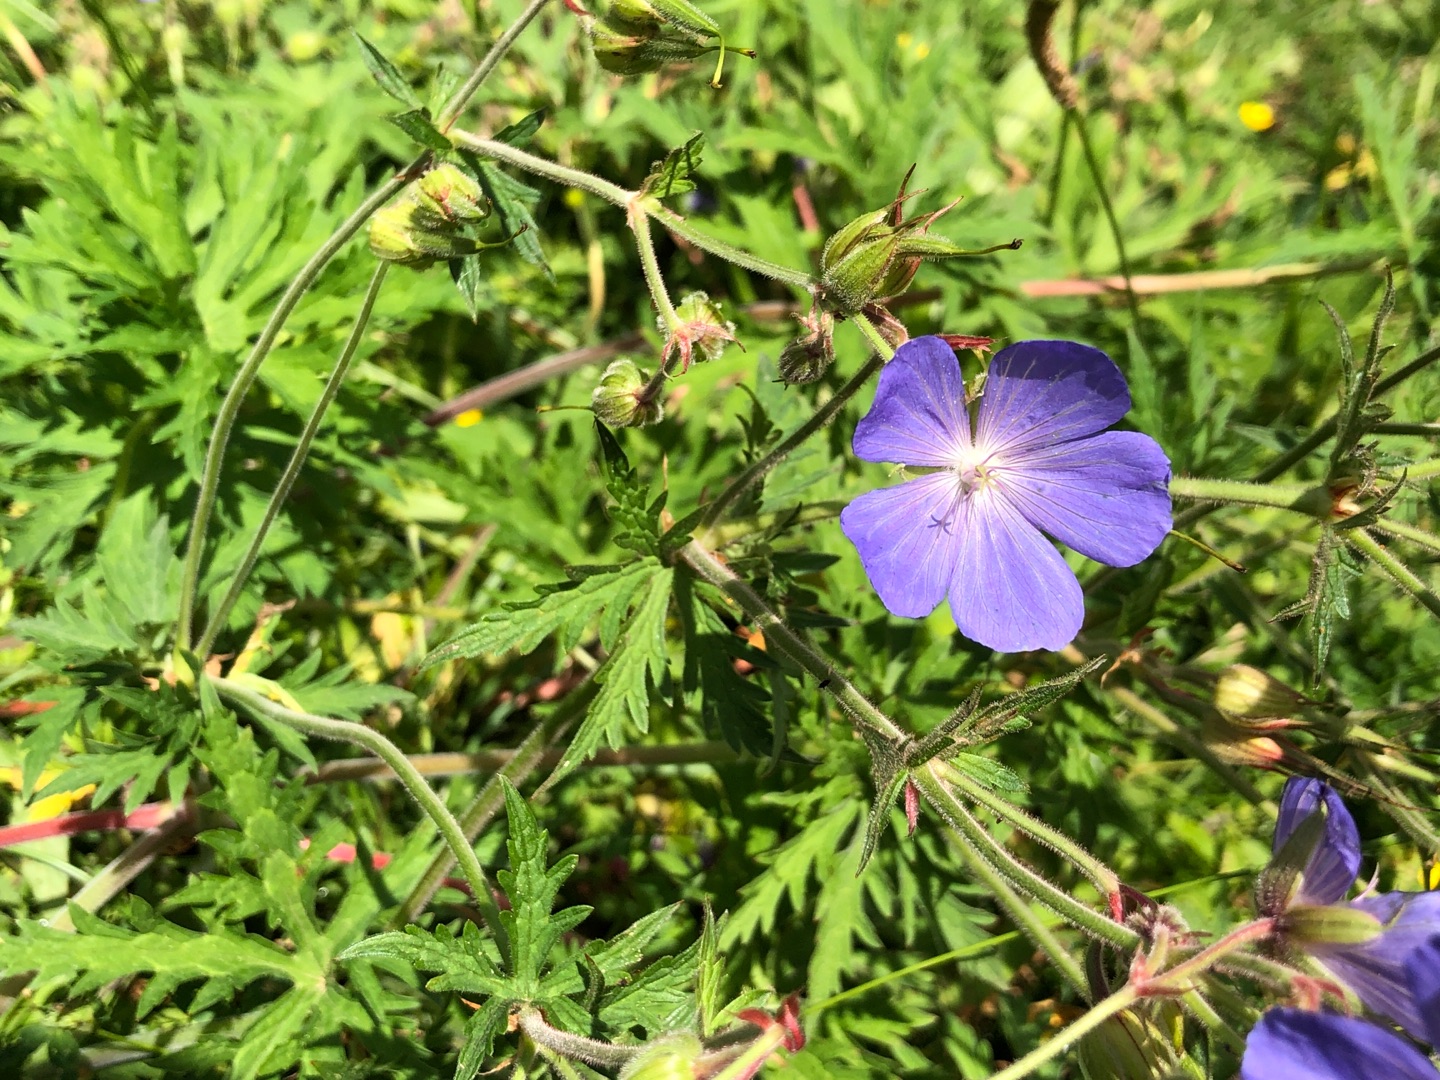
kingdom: Plantae
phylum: Tracheophyta
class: Magnoliopsida
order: Geraniales
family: Geraniaceae
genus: Geranium
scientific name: Geranium pratense
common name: Eng-storkenæb
